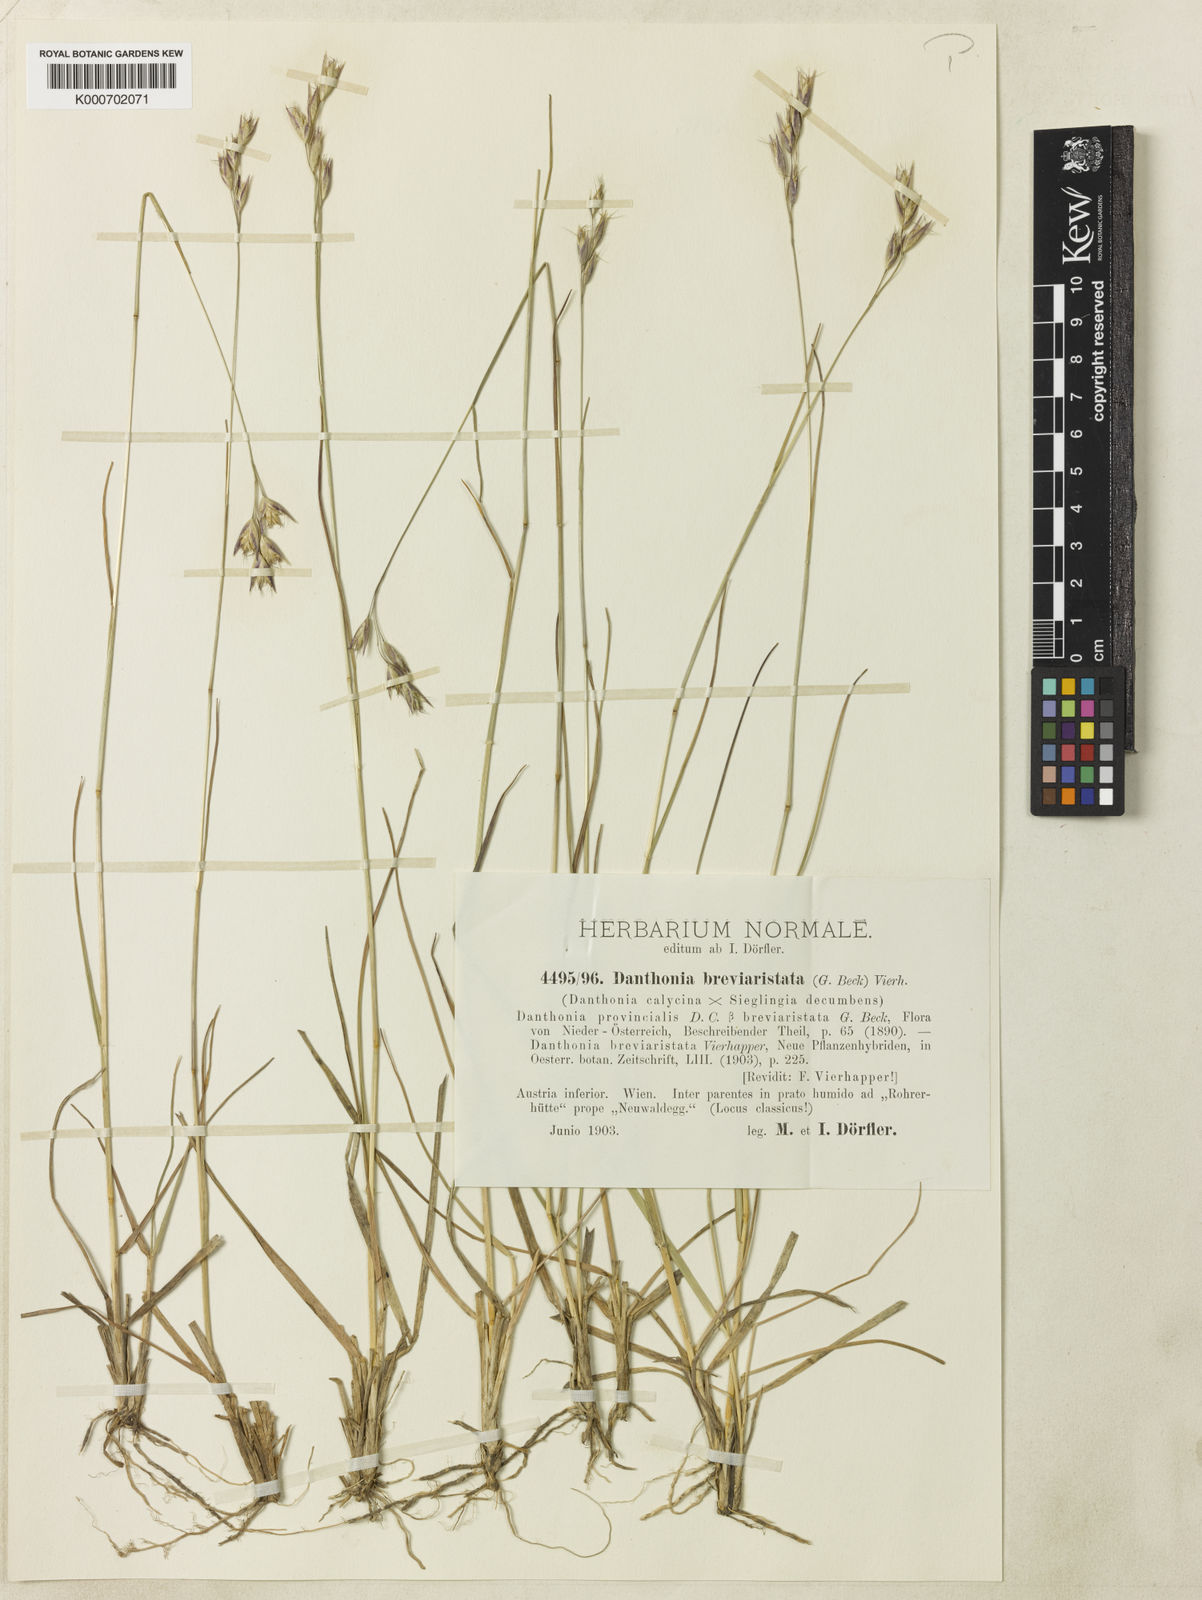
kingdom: Plantae
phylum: Tracheophyta
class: Liliopsida
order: Poales
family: Poaceae
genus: Danthonia
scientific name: Danthonia breviaristata
